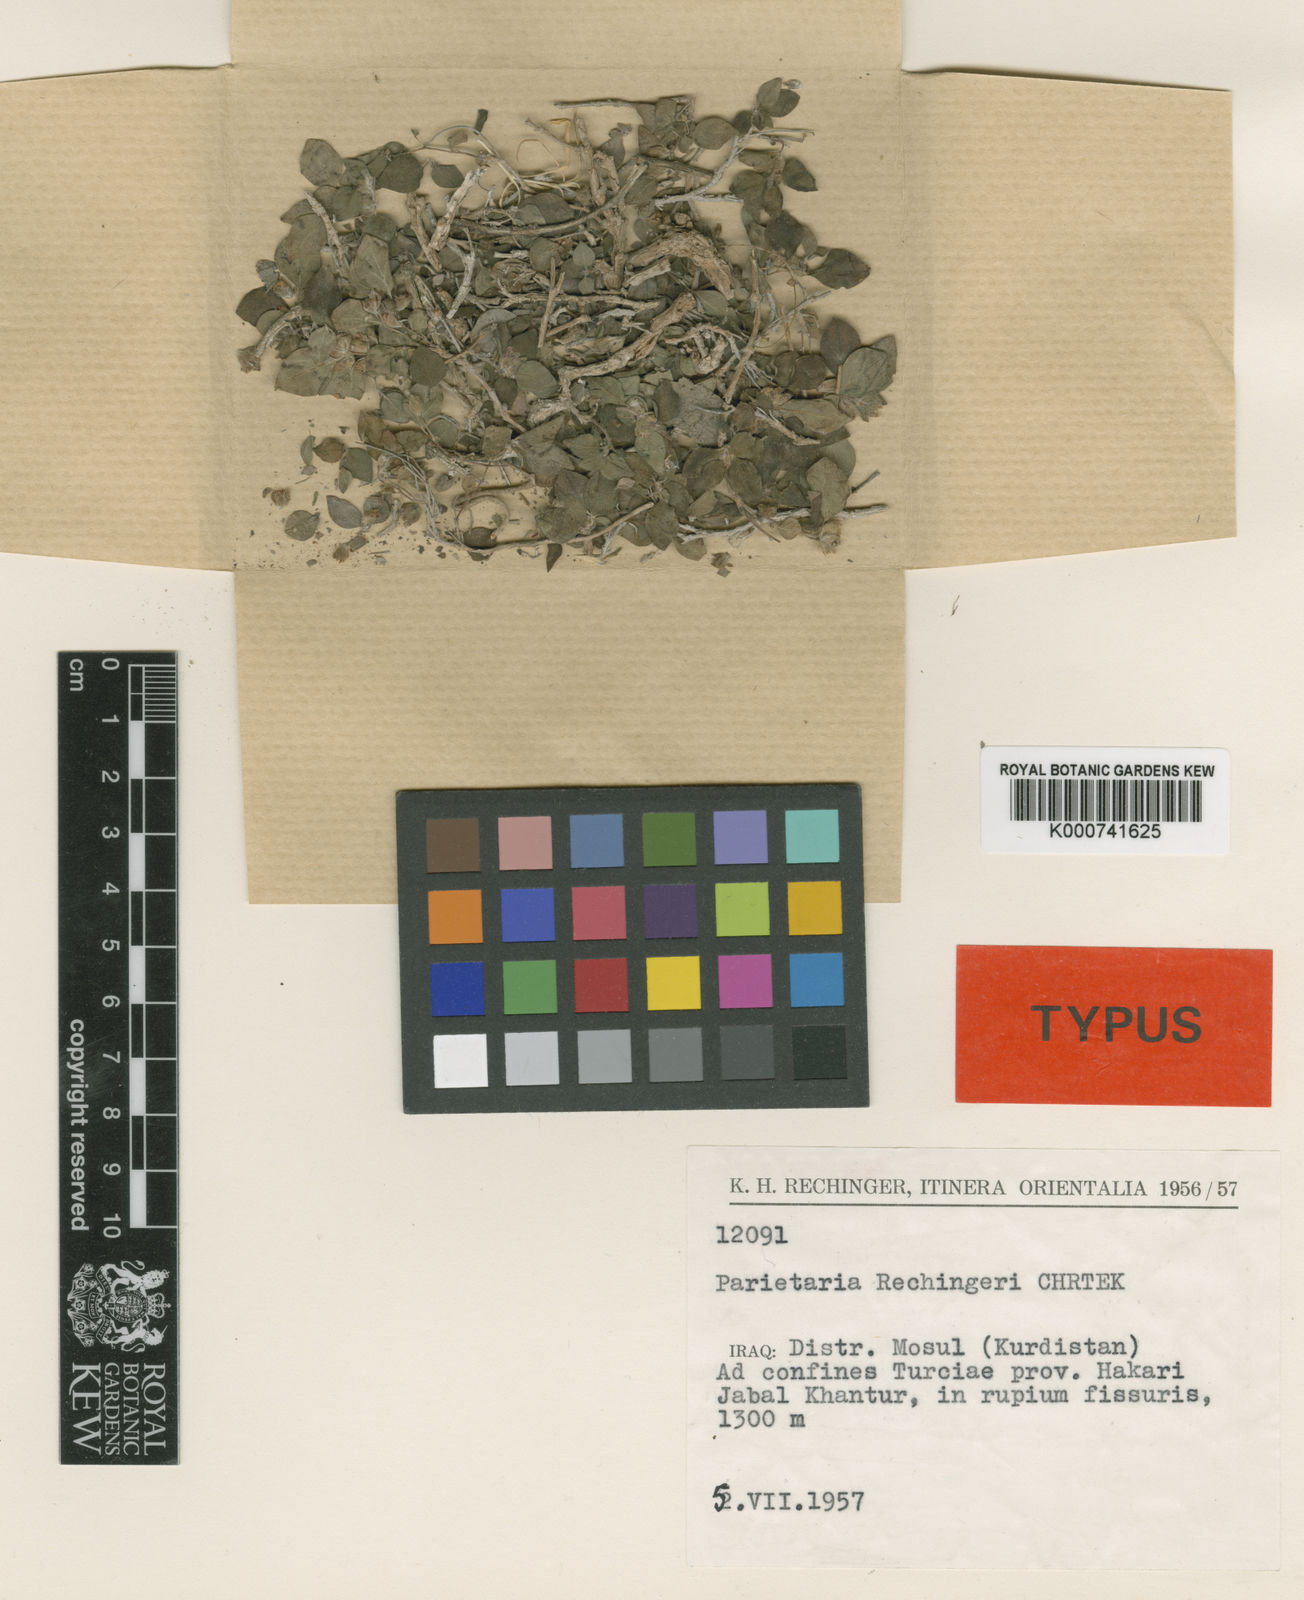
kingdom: Plantae
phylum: Tracheophyta
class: Magnoliopsida
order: Rosales
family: Urticaceae
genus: Parietaria
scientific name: Parietaria rechingeri
